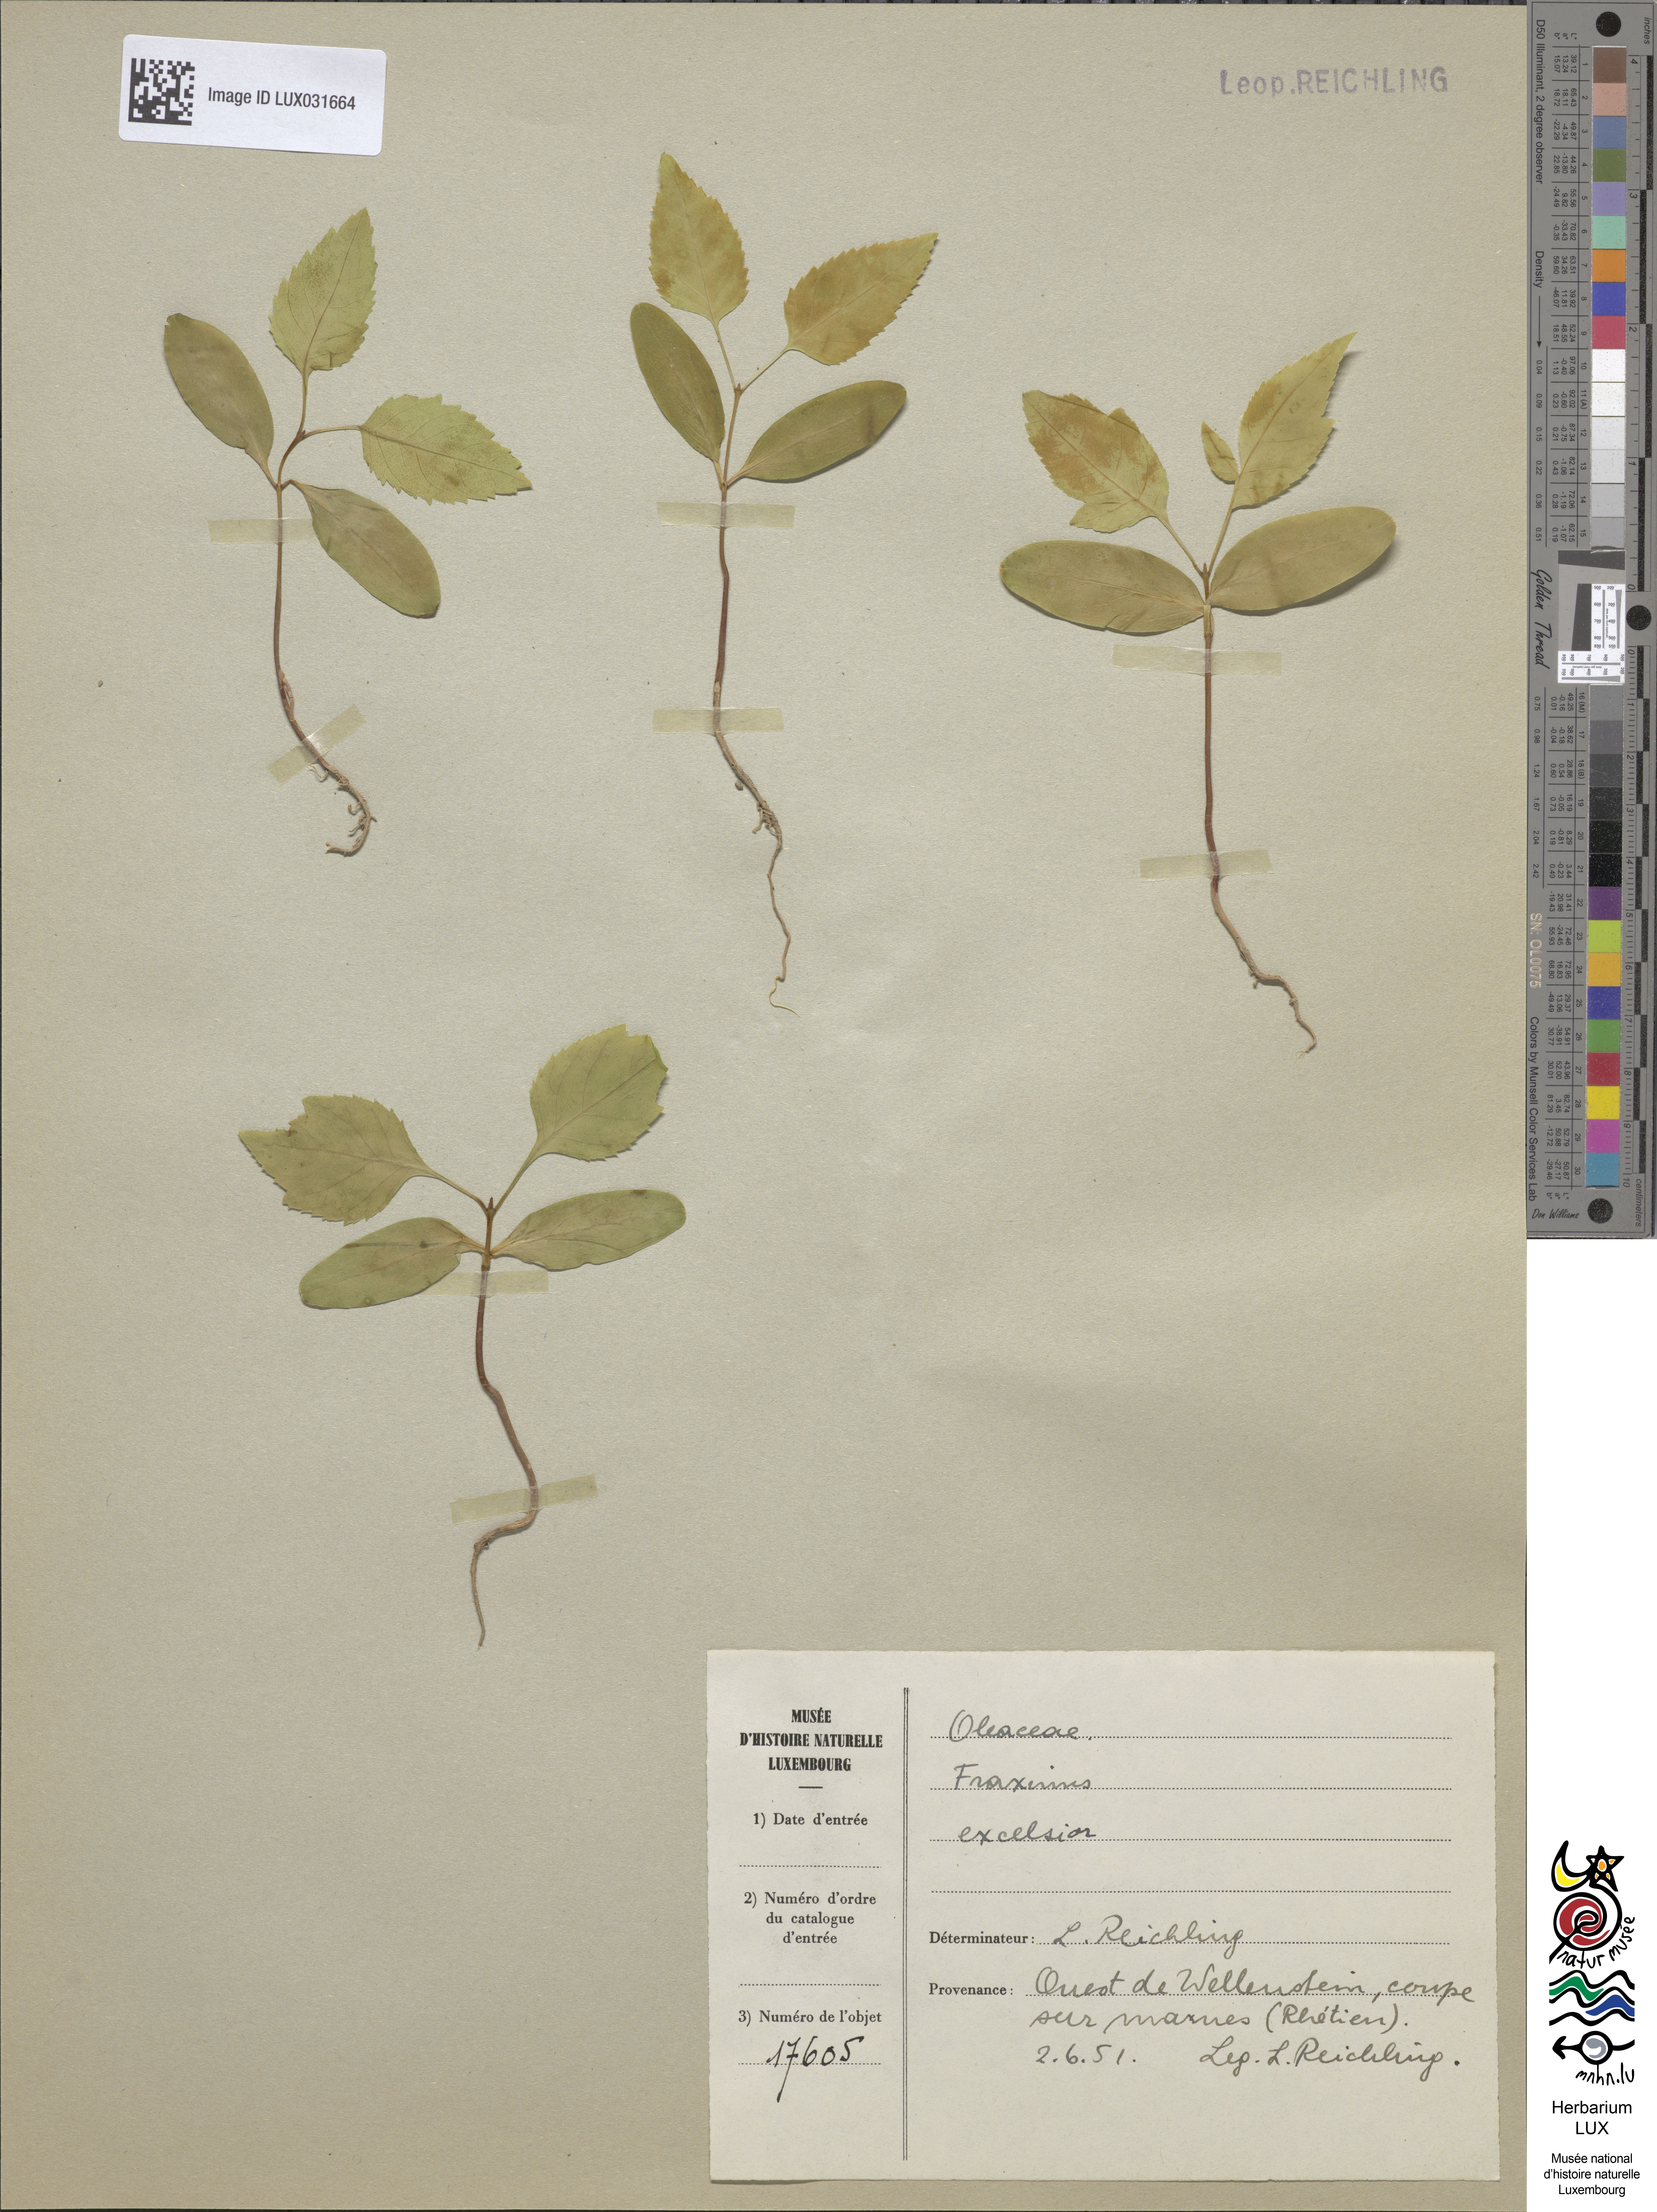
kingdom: Plantae
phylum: Tracheophyta
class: Magnoliopsida
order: Lamiales
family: Oleaceae
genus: Fraxinus
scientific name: Fraxinus excelsior
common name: European ash
